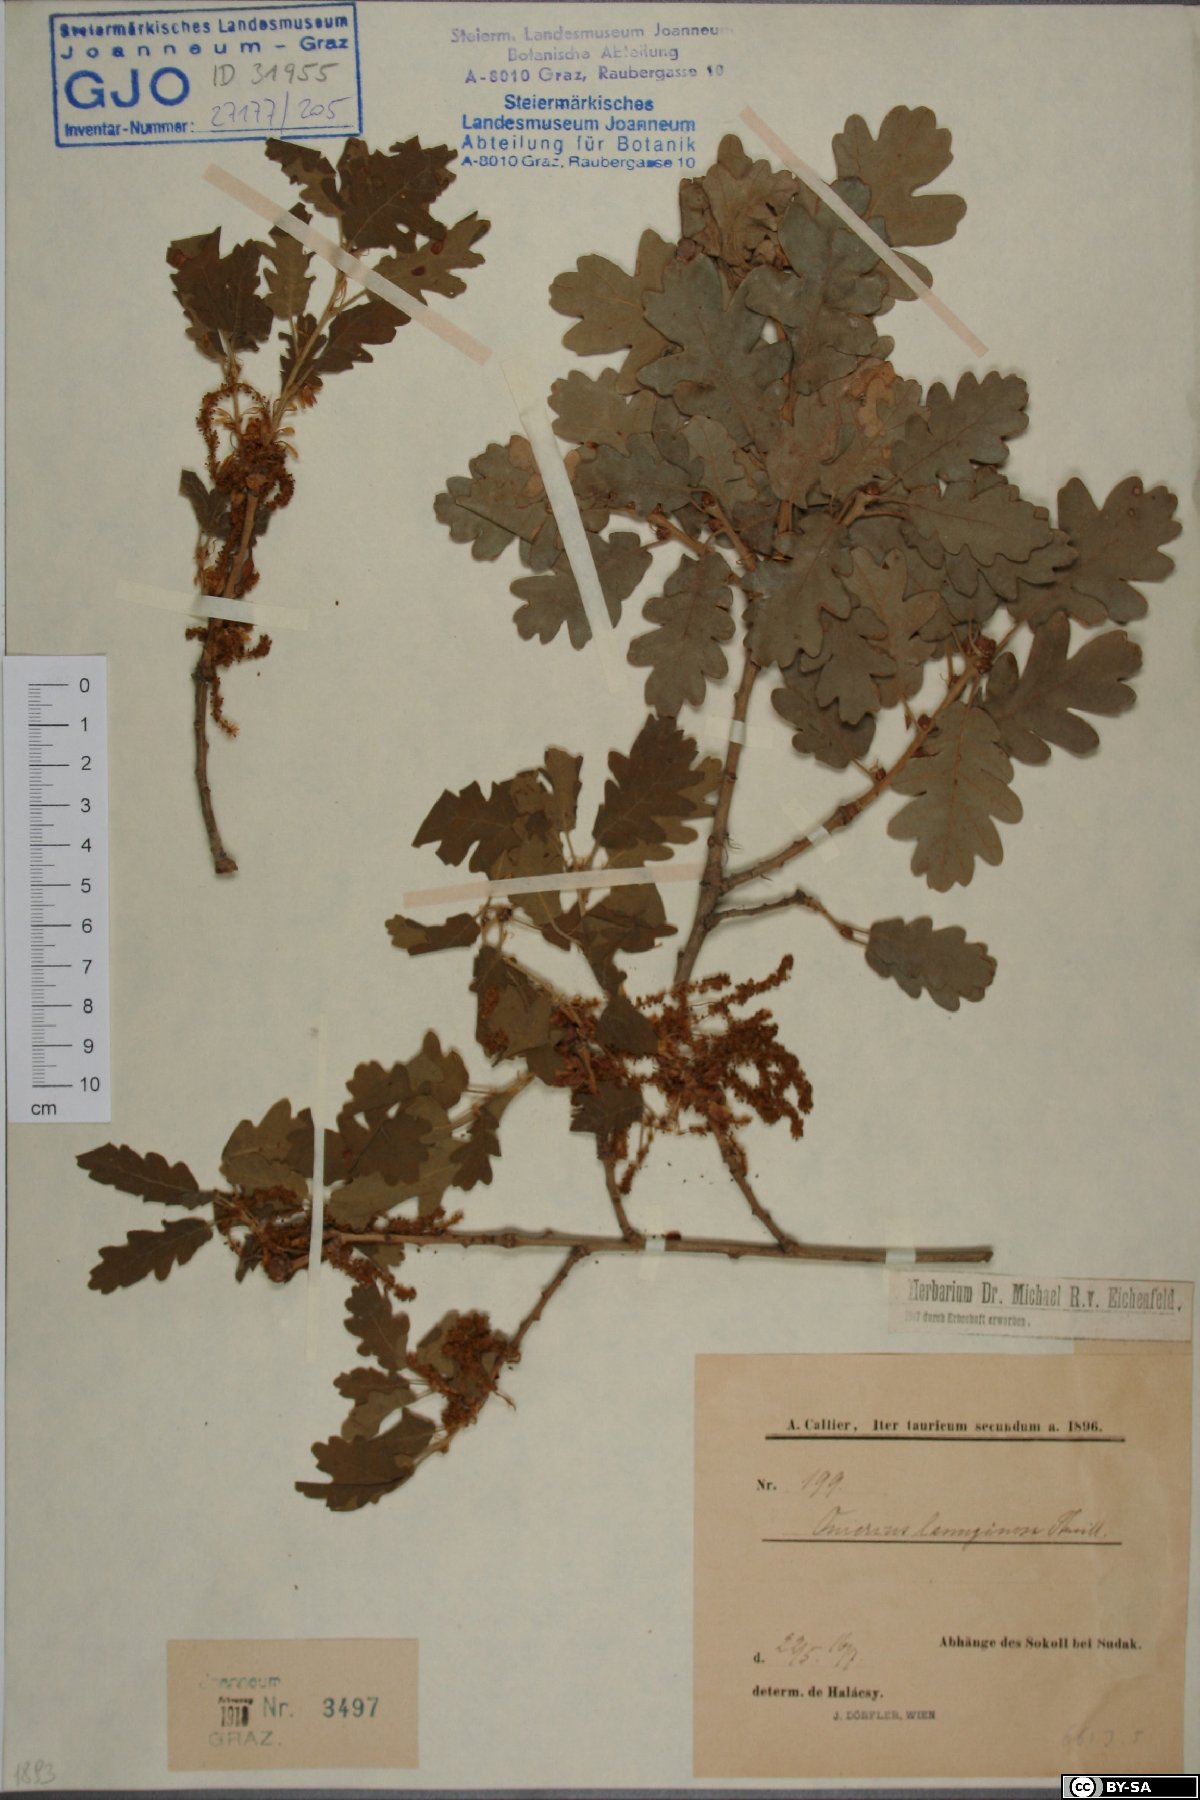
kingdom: Plantae
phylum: Tracheophyta
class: Magnoliopsida
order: Fagales
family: Fagaceae
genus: Quercus
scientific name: Quercus pubescens
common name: Downy oak
